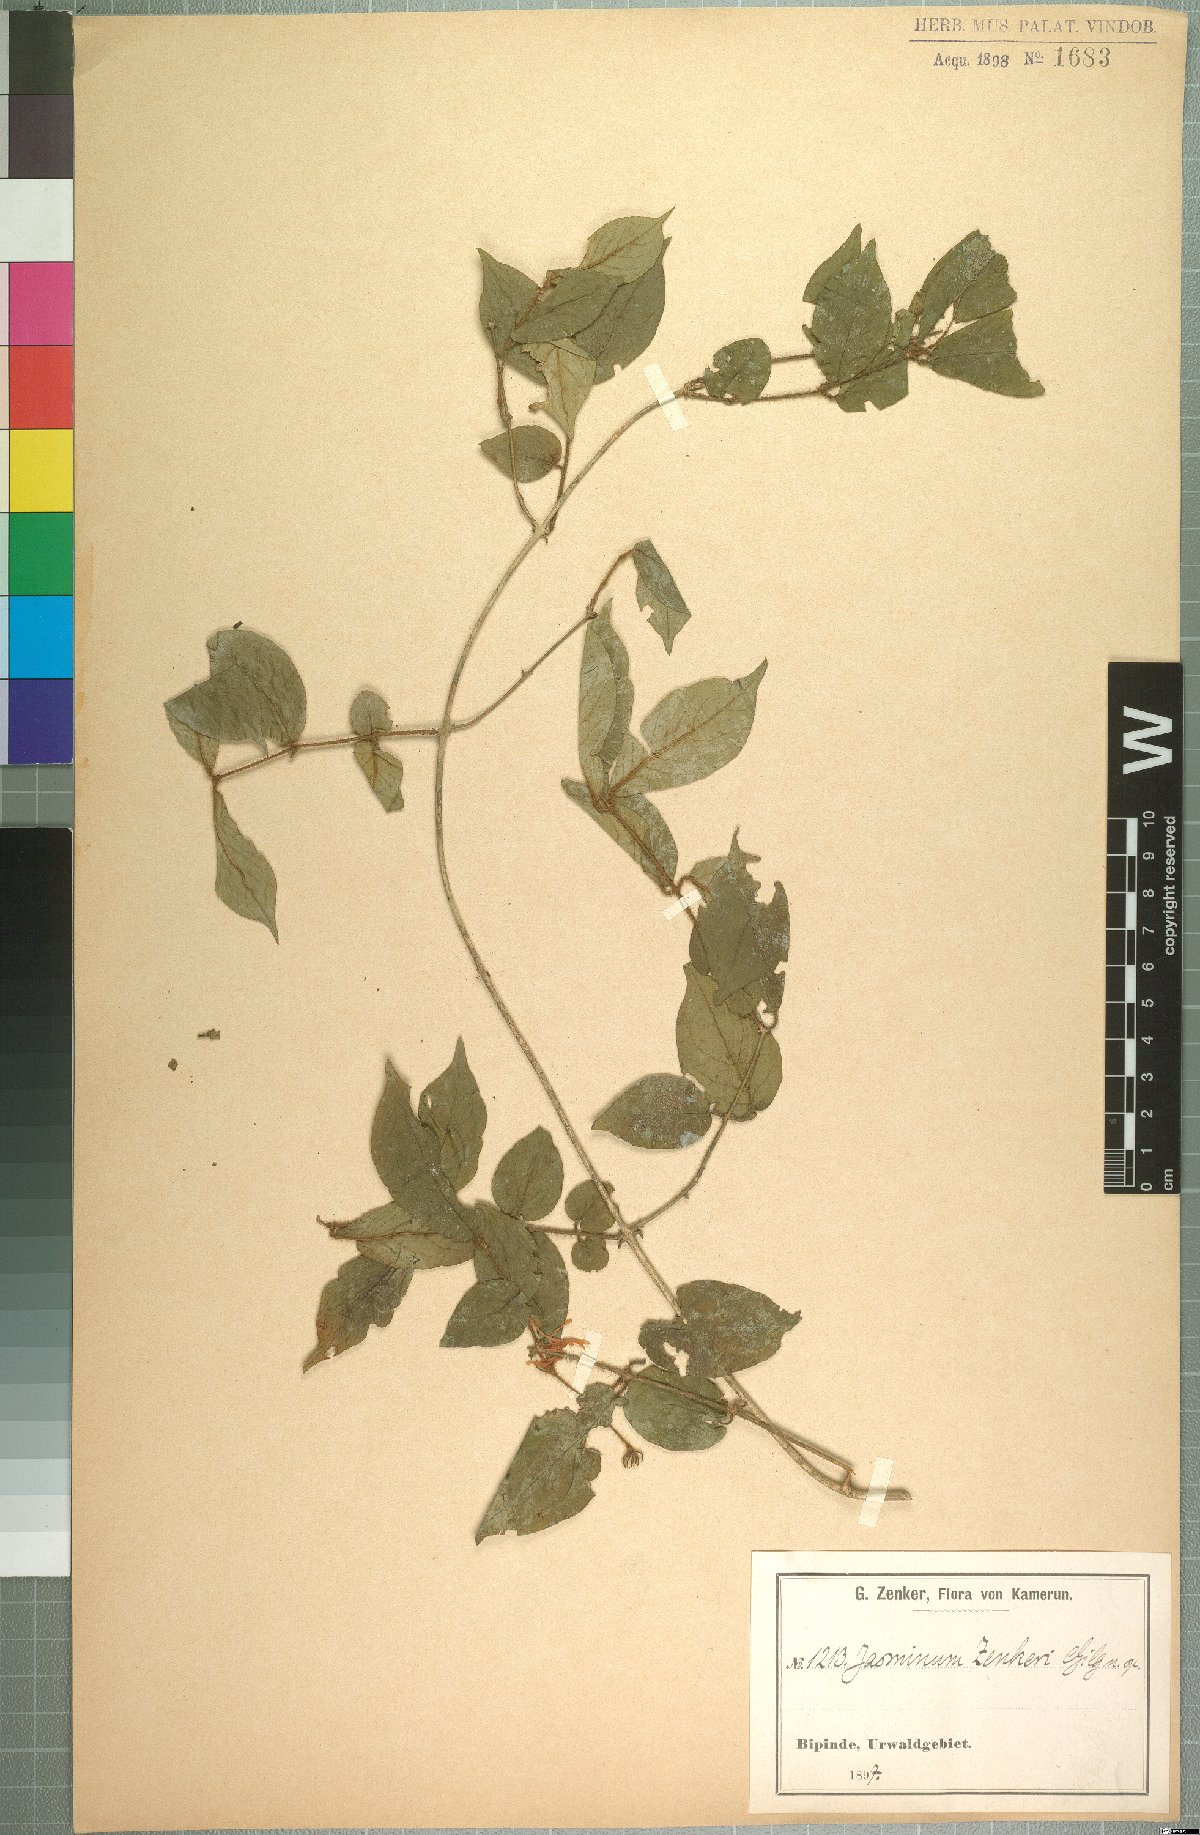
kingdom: Plantae
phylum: Tracheophyta
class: Magnoliopsida
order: Lamiales
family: Oleaceae
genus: Jasminum
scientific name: Jasminum preussii
